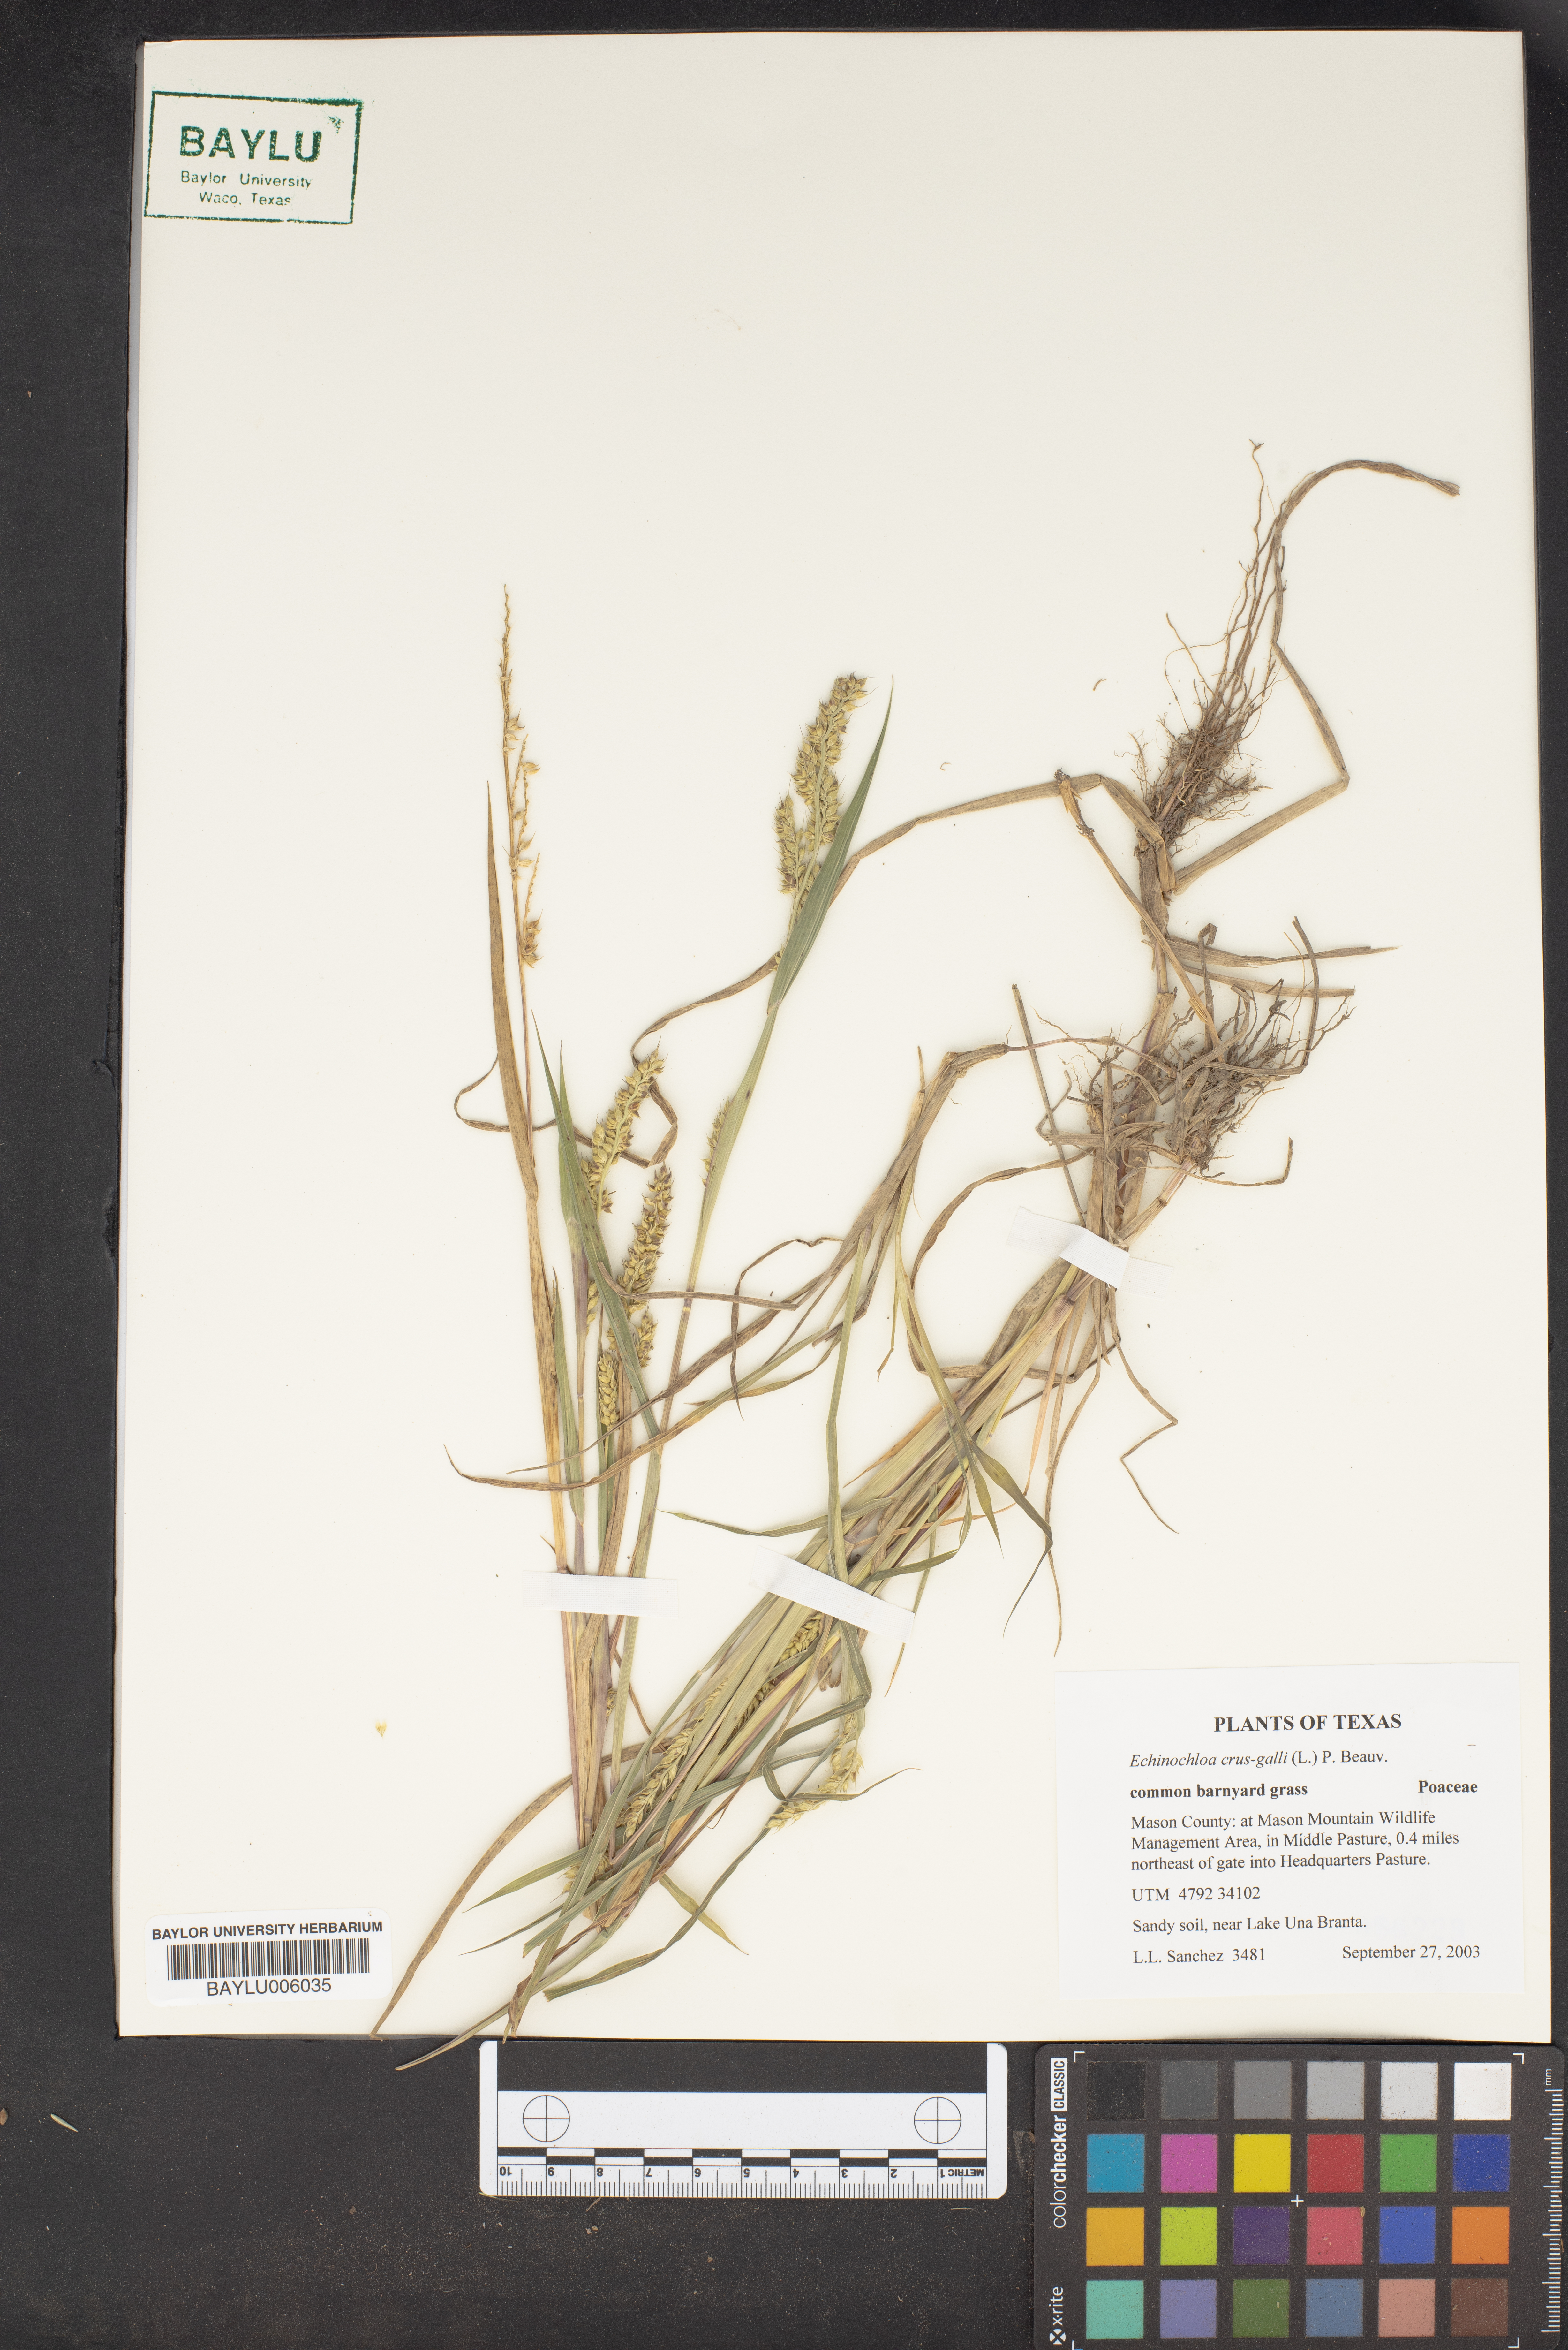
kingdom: Plantae
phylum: Tracheophyta
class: Liliopsida
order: Poales
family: Poaceae
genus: Echinochloa
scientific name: Echinochloa crus-galli
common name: Cockspur
